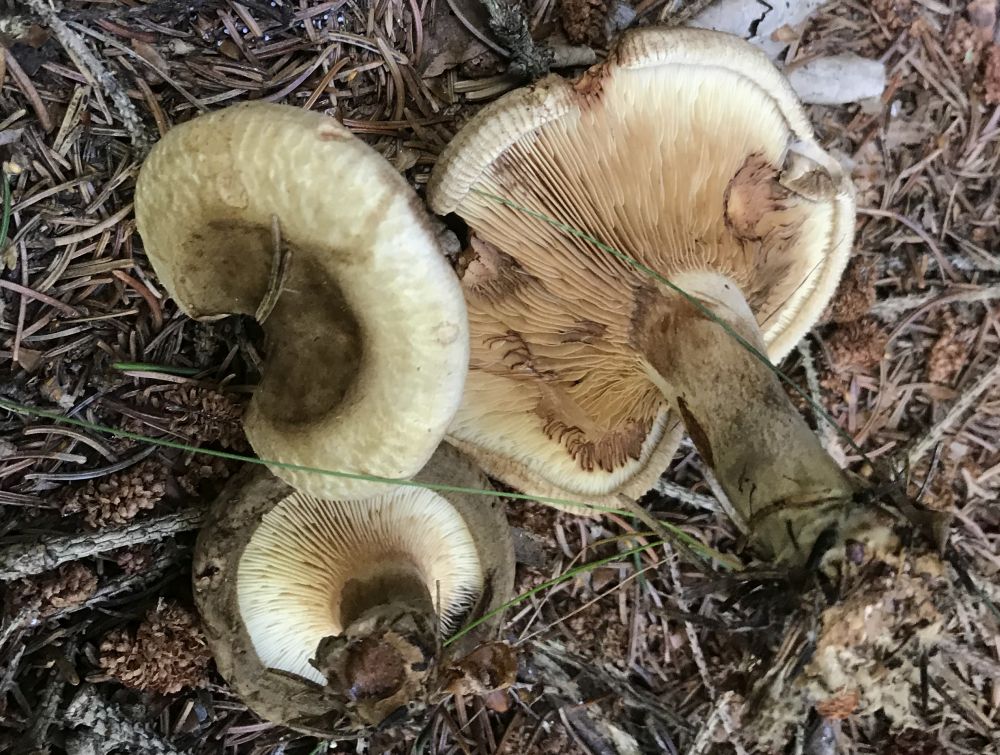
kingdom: Fungi
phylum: Basidiomycota
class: Agaricomycetes
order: Boletales
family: Paxillaceae
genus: Paxillus
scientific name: Paxillus involutus
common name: almindelig netbladhat
